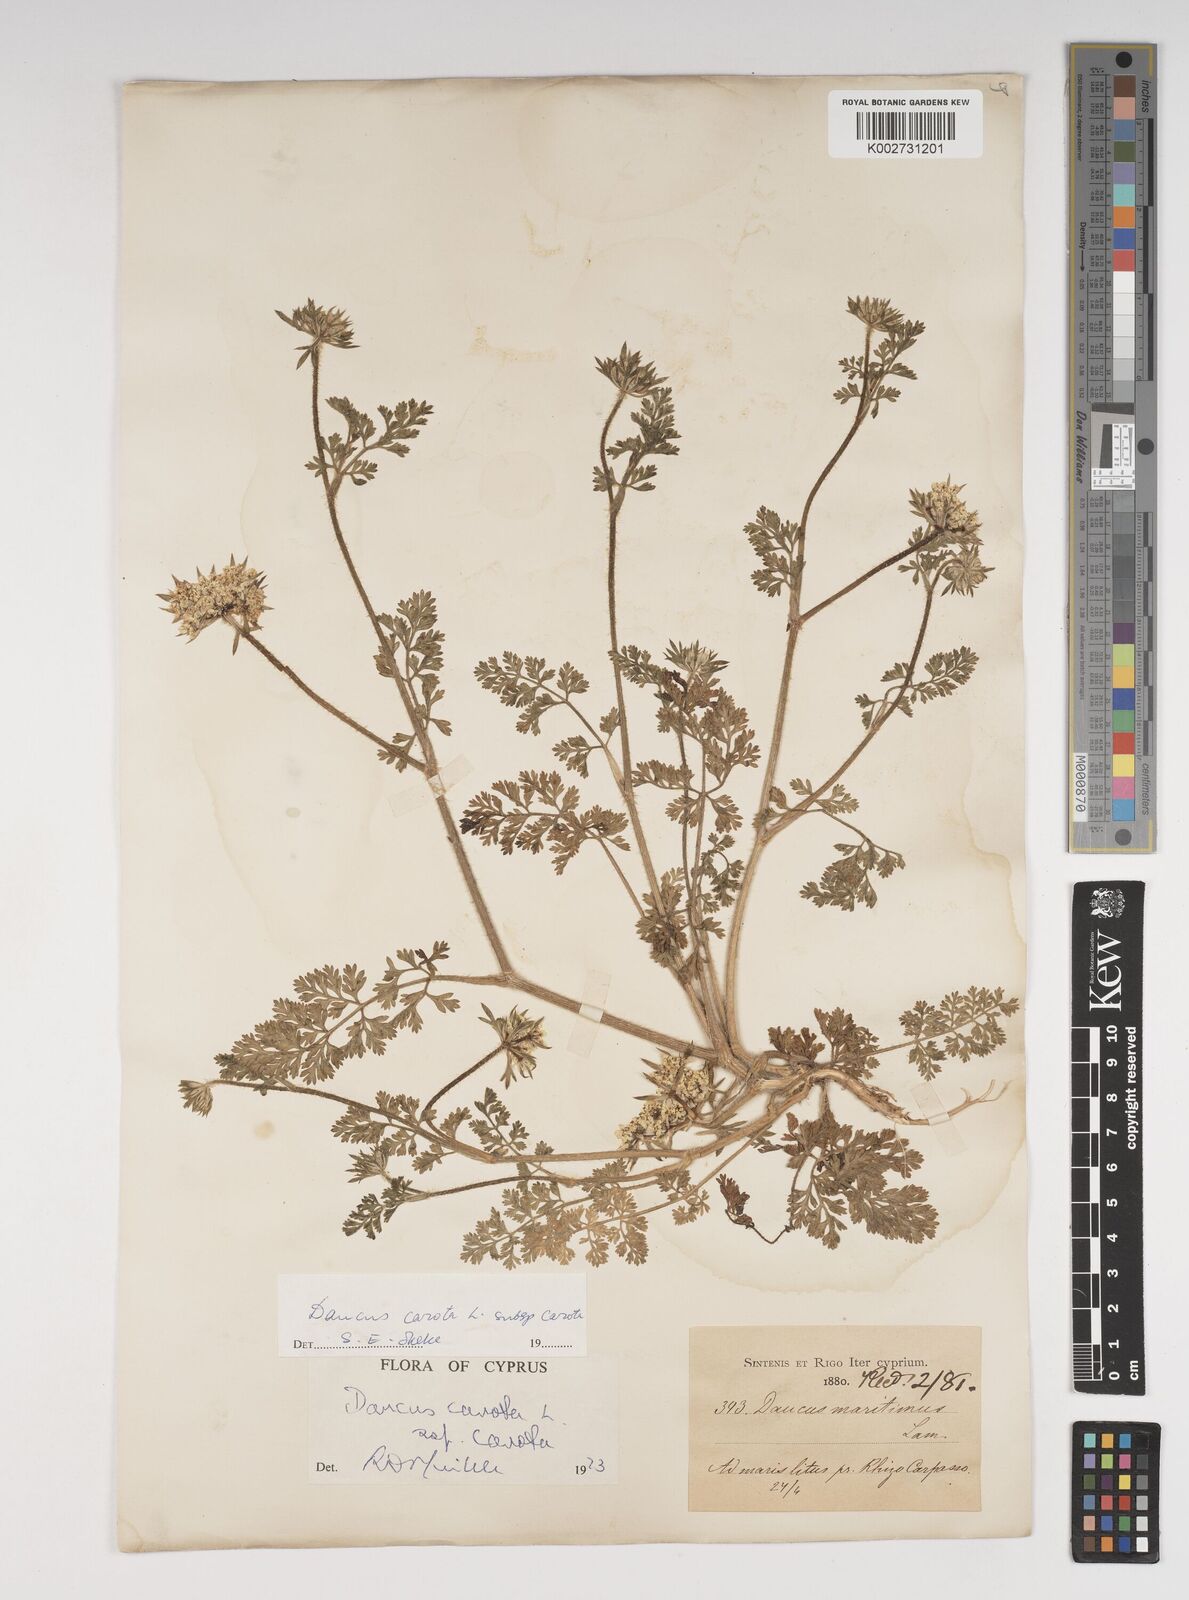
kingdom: Plantae
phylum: Tracheophyta
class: Magnoliopsida
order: Apiales
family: Apiaceae
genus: Daucus
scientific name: Daucus carota
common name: Wild carrot
